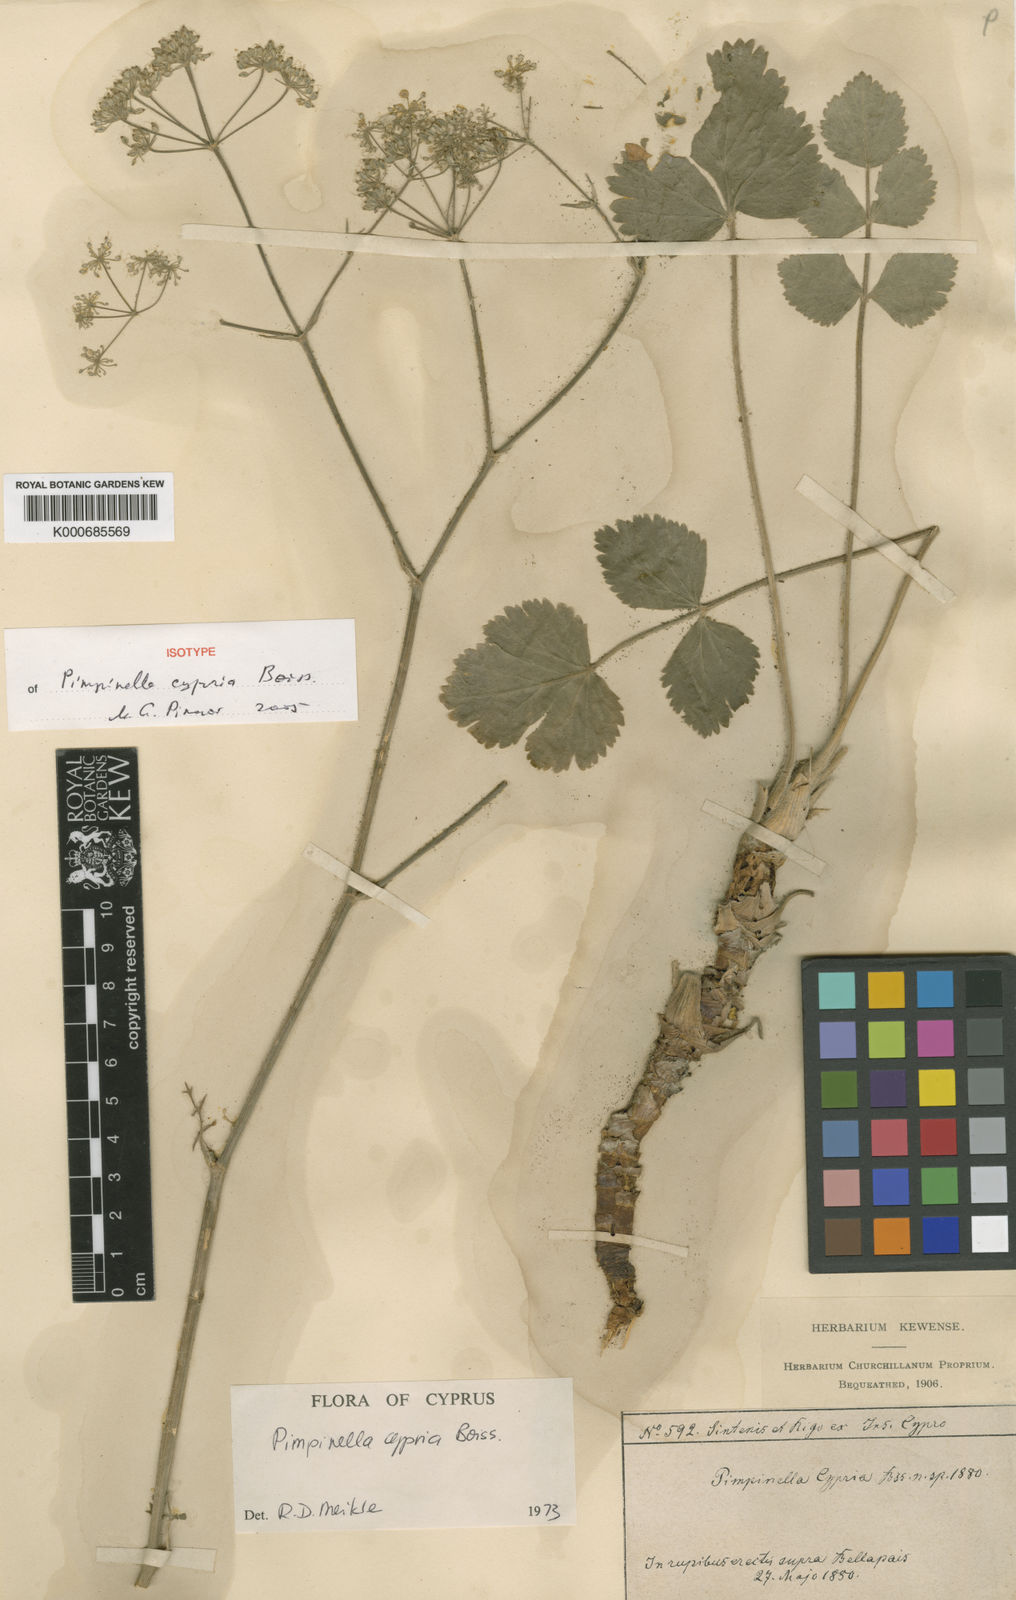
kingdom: Plantae
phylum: Tracheophyta
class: Magnoliopsida
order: Apiales
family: Apiaceae
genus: Pimpinella
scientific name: Pimpinella cypria
